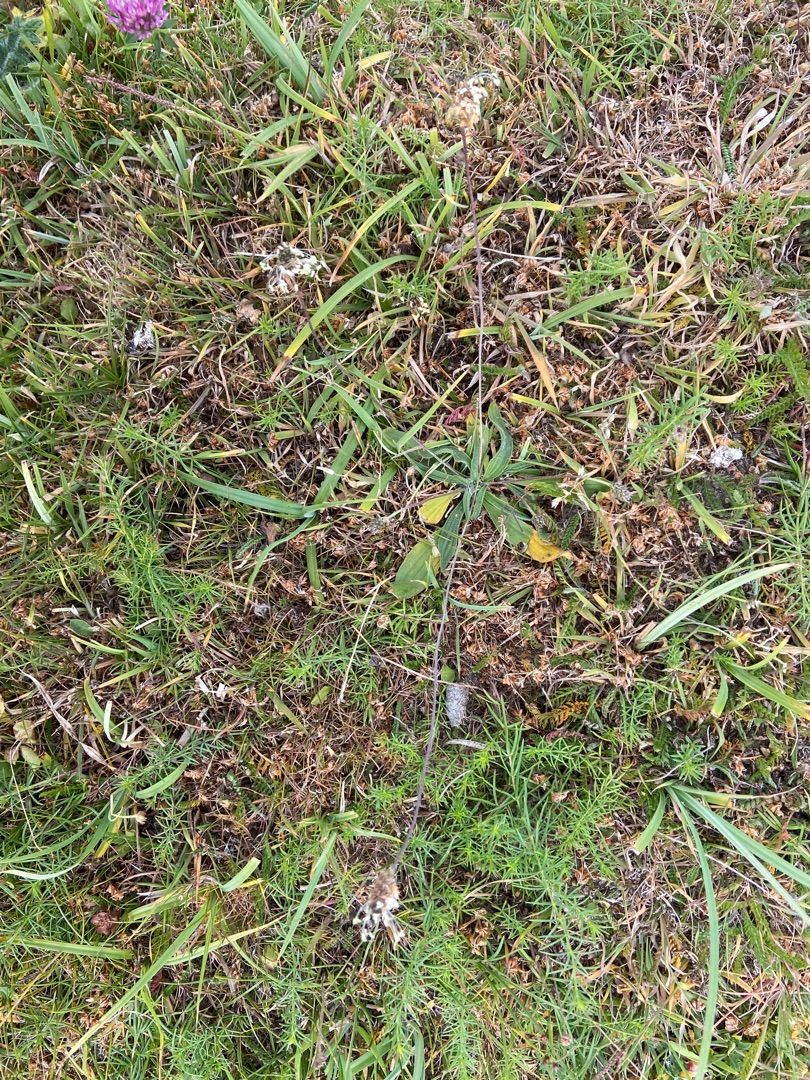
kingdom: Plantae
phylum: Tracheophyta
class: Magnoliopsida
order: Lamiales
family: Plantaginaceae
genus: Plantago
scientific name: Plantago lanceolata
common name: Lancet-vejbred
